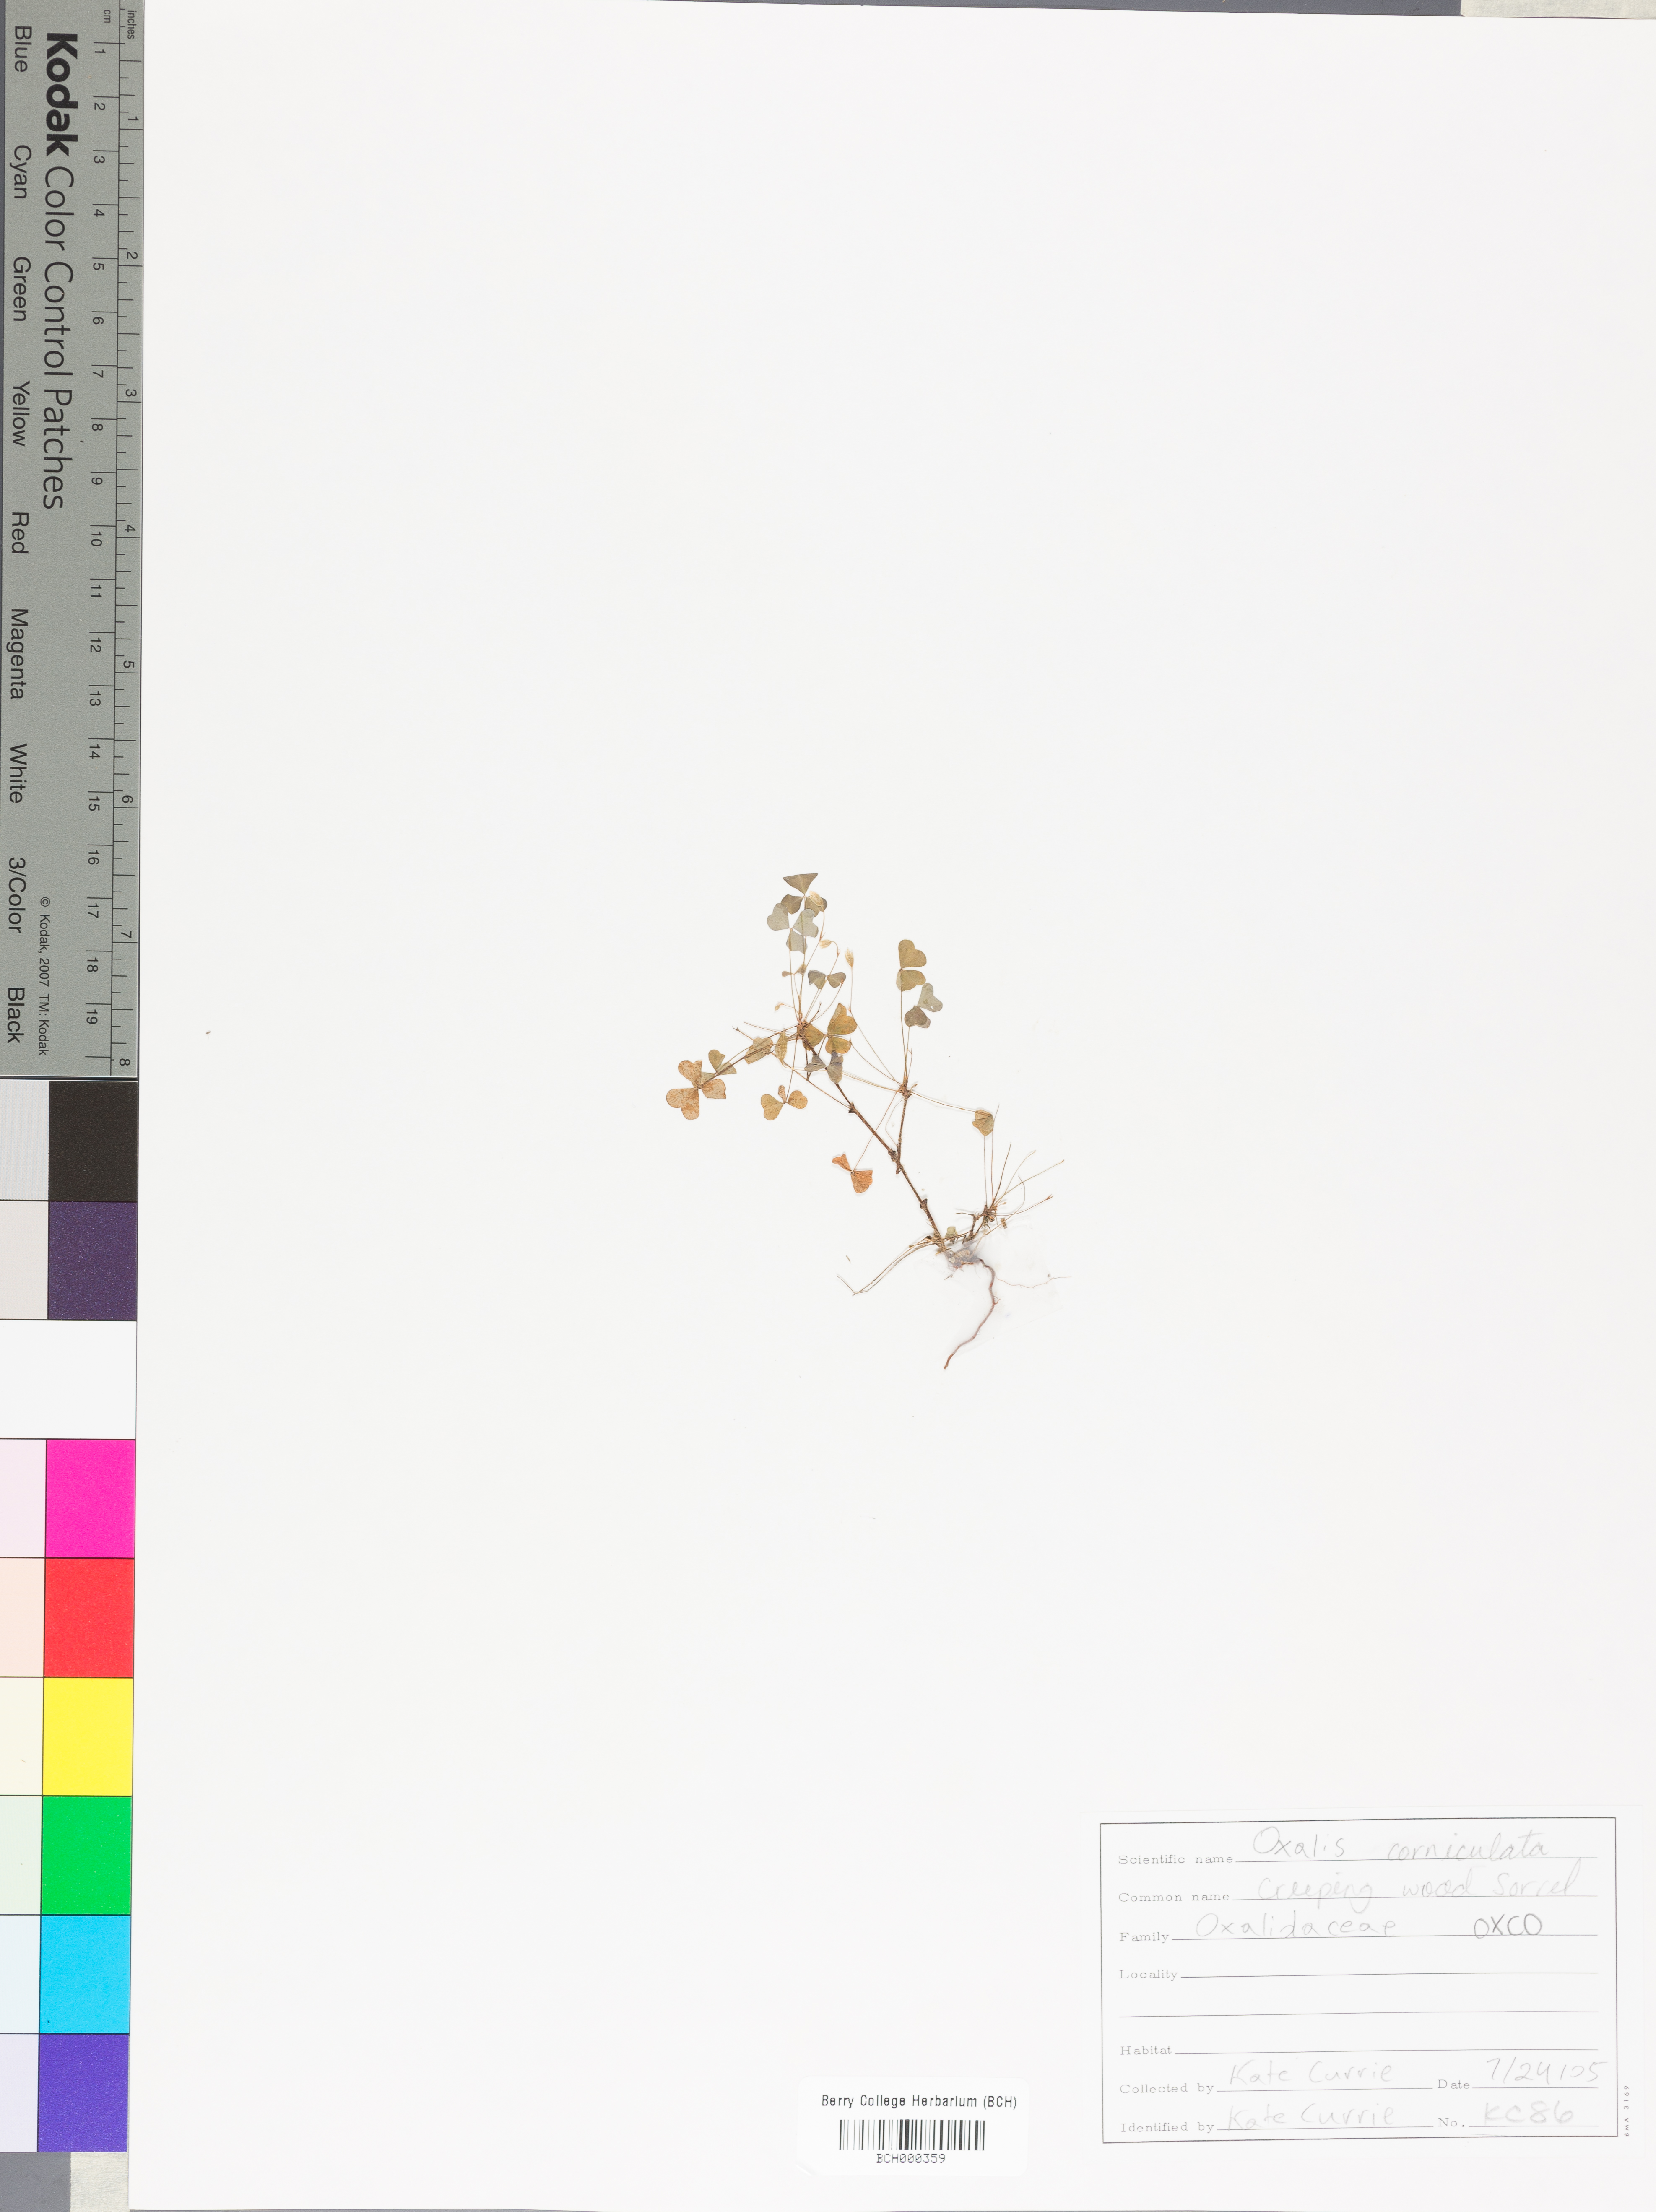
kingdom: Plantae
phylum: Tracheophyta
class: Magnoliopsida
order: Oxalidales
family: Oxalidaceae
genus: Oxalis
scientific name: Oxalis corniculata
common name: Procumbent yellow-sorrel
